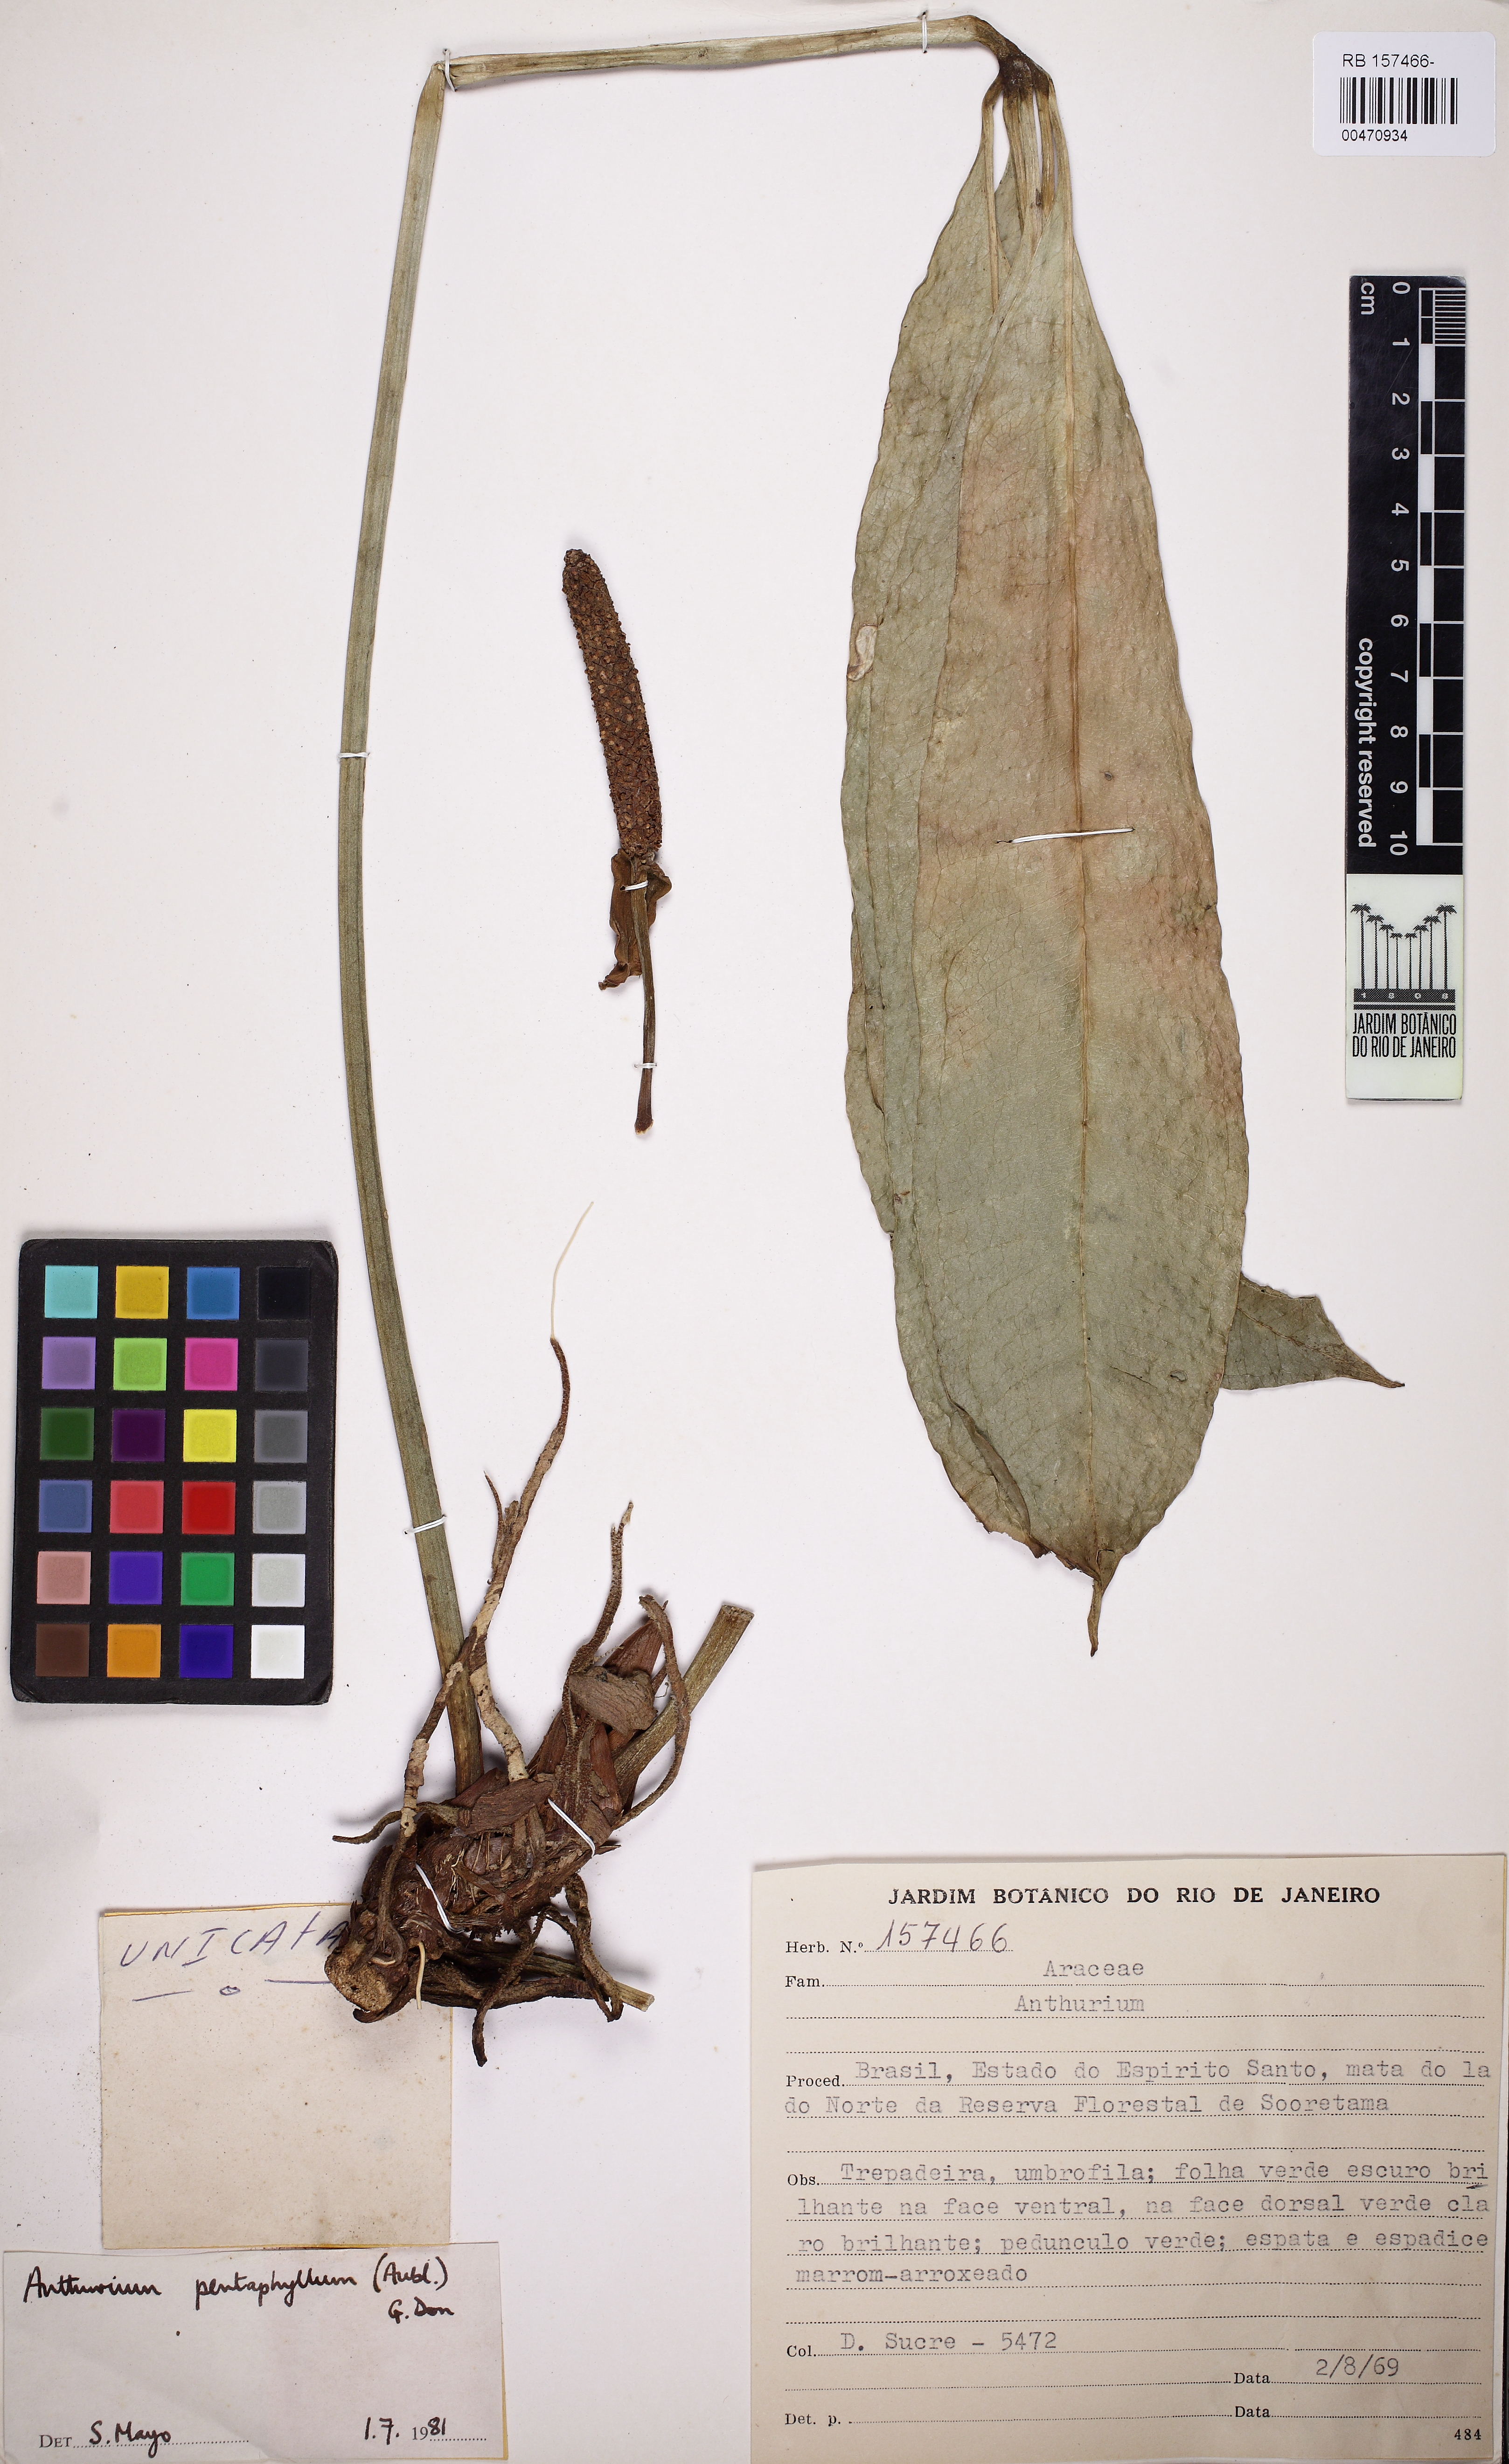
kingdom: Plantae
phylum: Tracheophyta
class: Liliopsida
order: Alismatales
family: Araceae
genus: Anthurium
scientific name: Anthurium pentaphyllum
